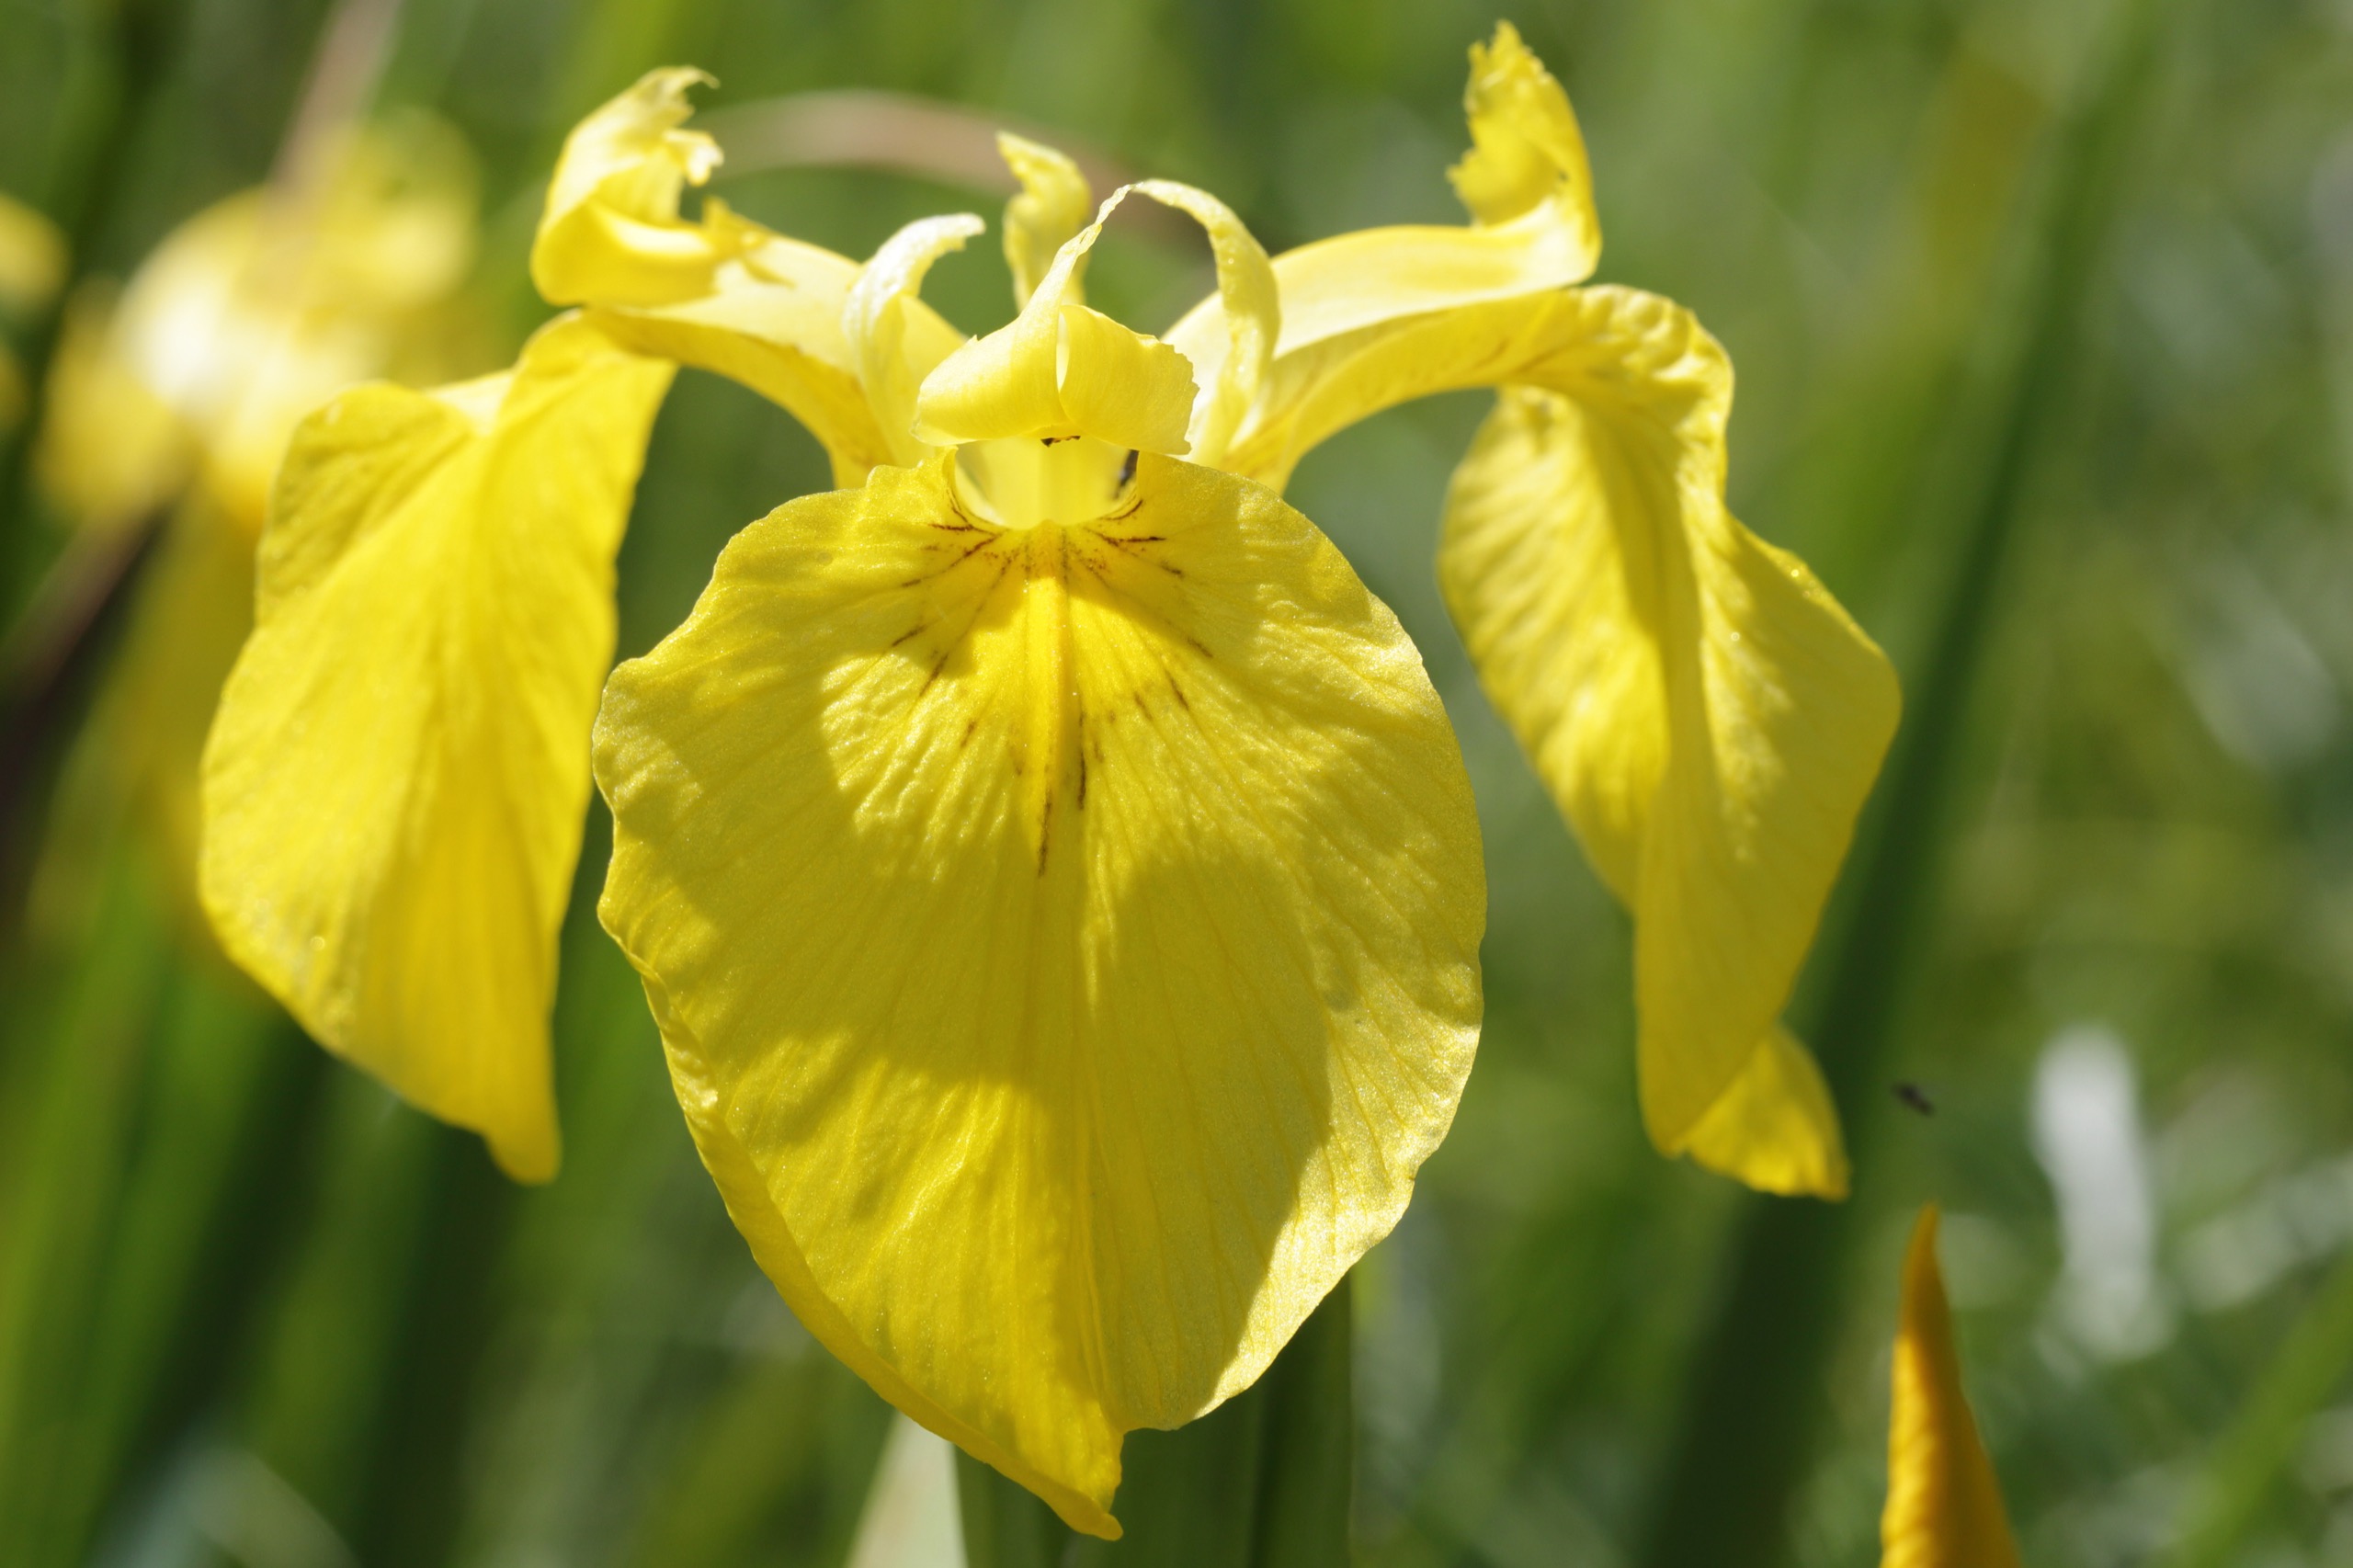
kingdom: Plantae
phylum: Tracheophyta
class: Liliopsida
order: Asparagales
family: Iridaceae
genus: Iris
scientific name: Iris pseudacorus
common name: Gul iris
